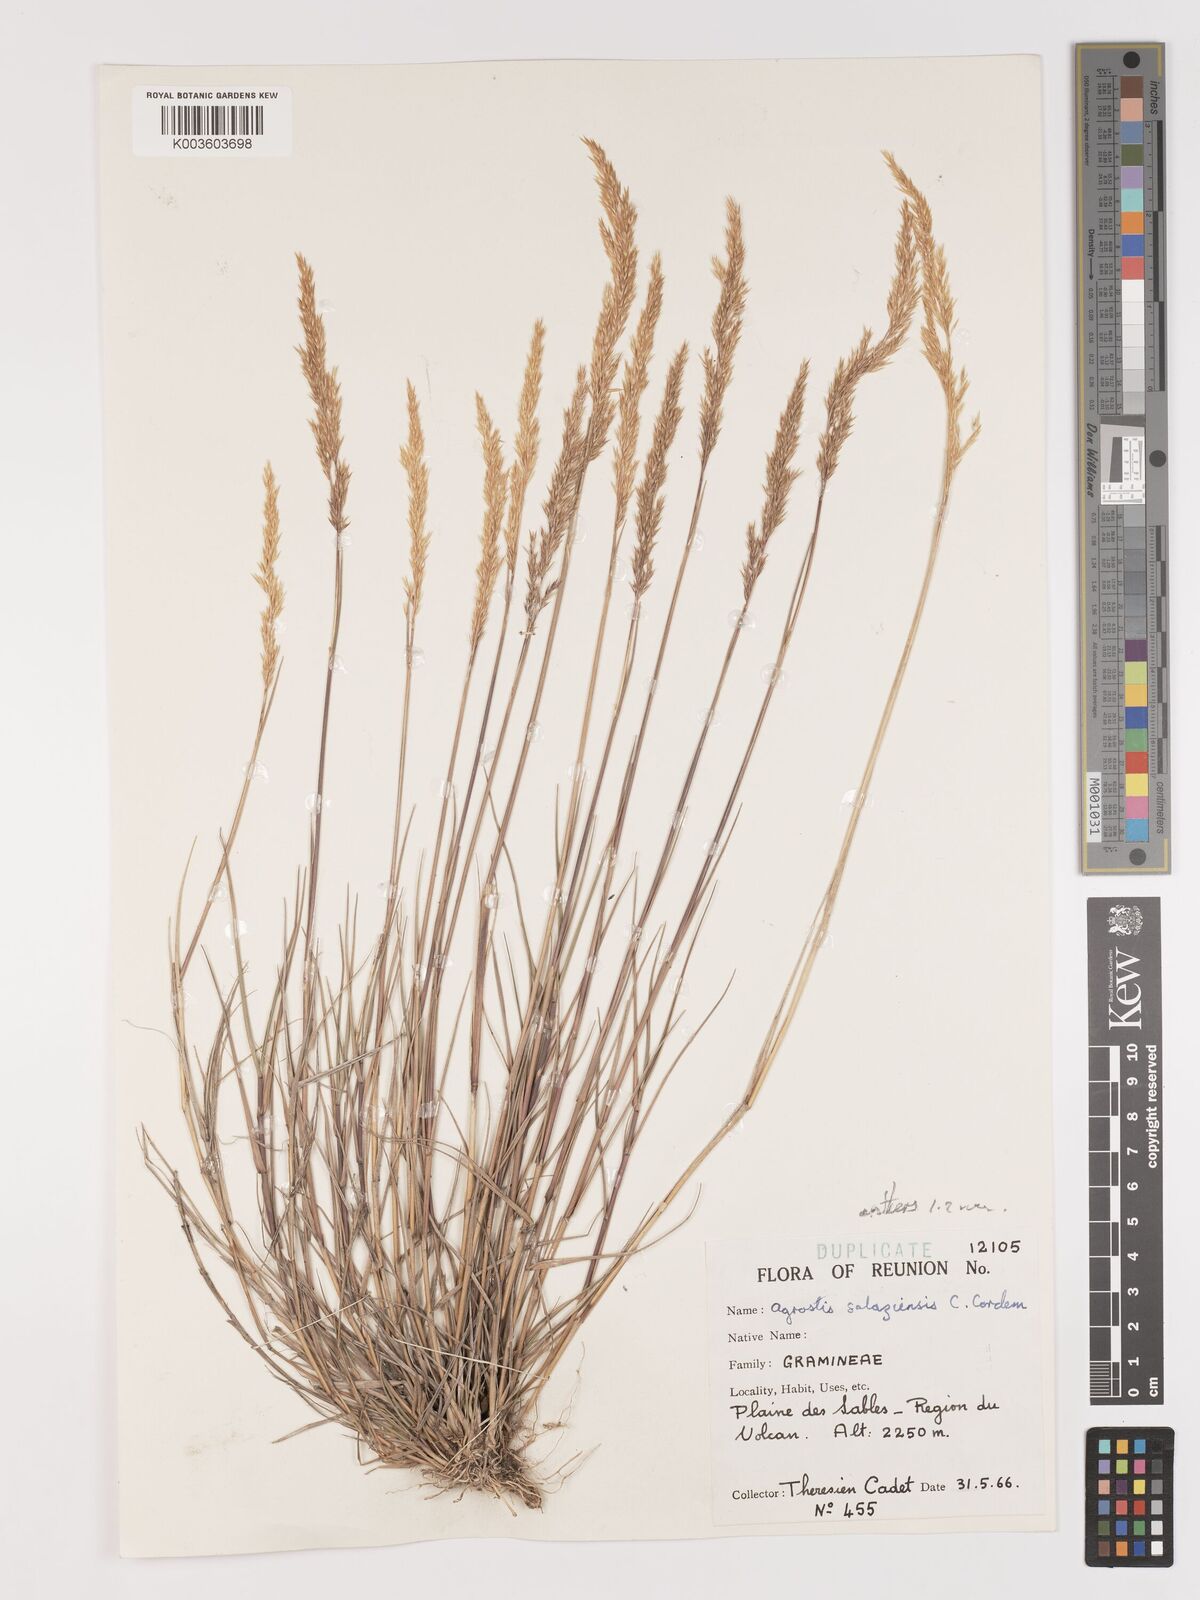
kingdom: Plantae
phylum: Tracheophyta
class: Liliopsida
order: Poales
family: Poaceae
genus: Agrostis
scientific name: Agrostis salaziensis
